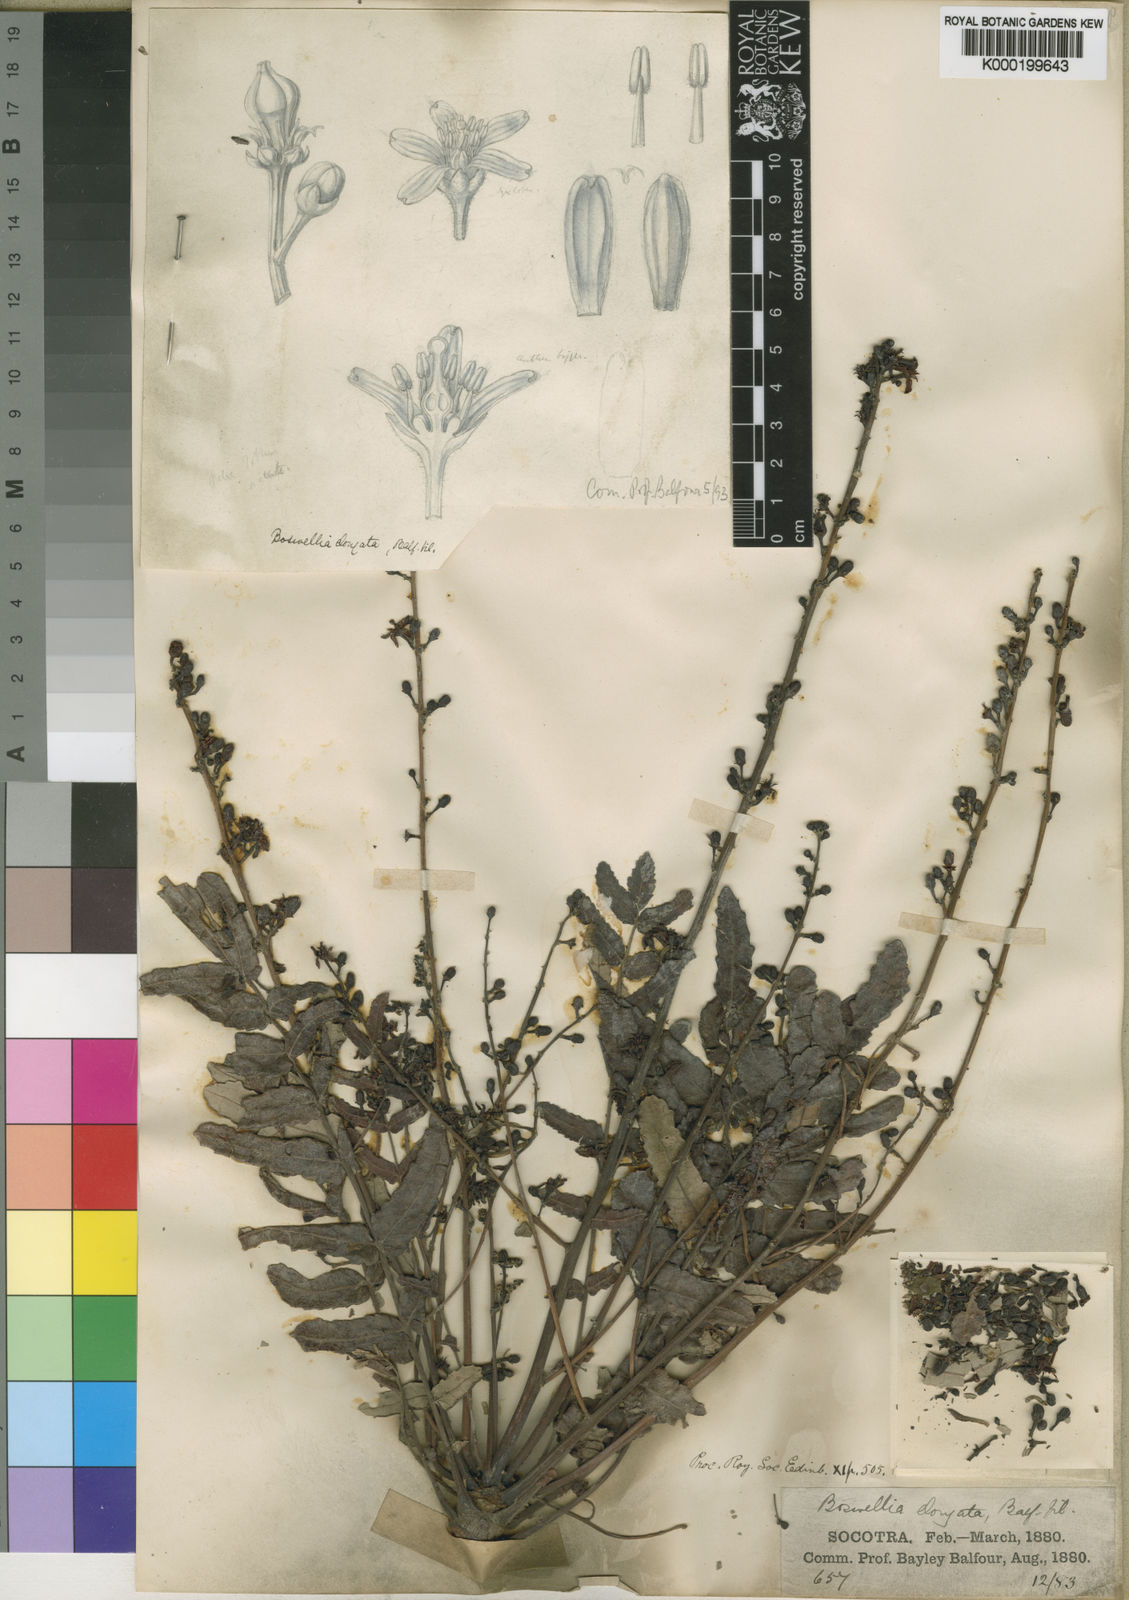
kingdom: Plantae
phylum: Tracheophyta
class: Magnoliopsida
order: Sapindales
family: Burseraceae
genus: Boswellia
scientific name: Boswellia elongata
